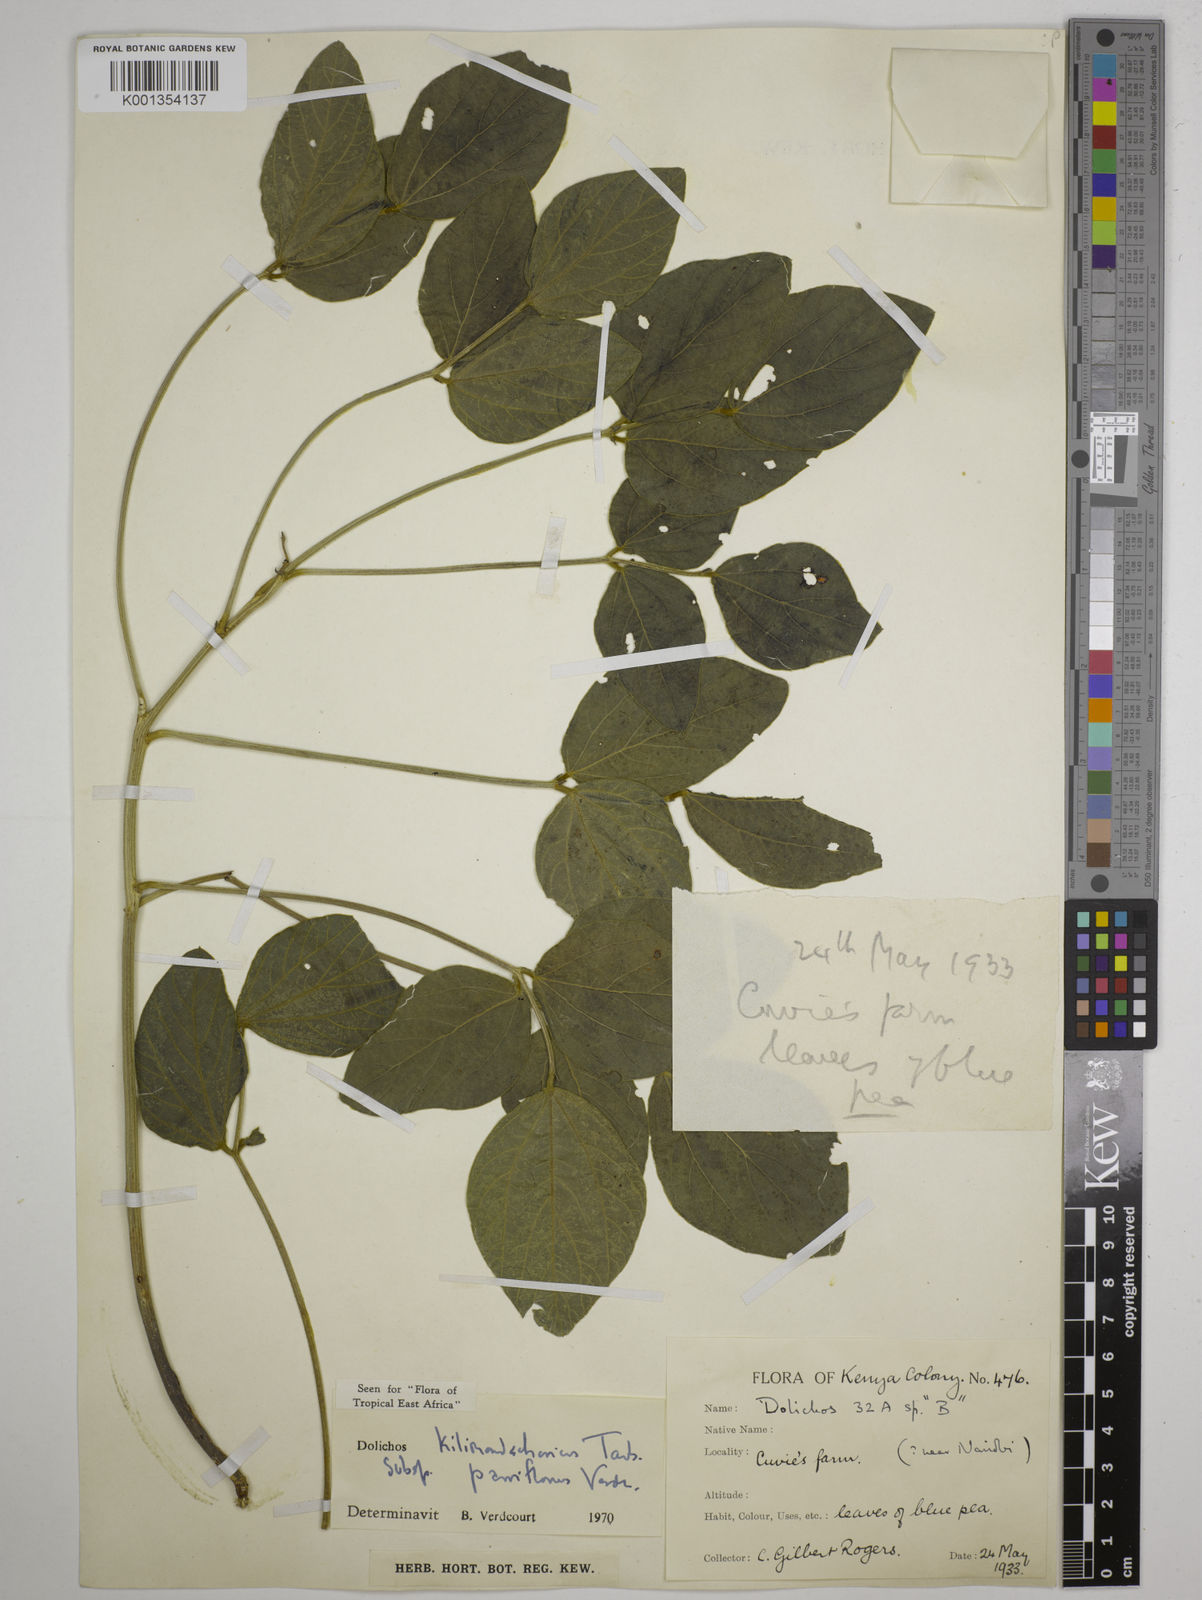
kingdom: Plantae
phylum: Tracheophyta
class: Magnoliopsida
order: Fabales
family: Fabaceae
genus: Dolichos
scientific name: Dolichos
